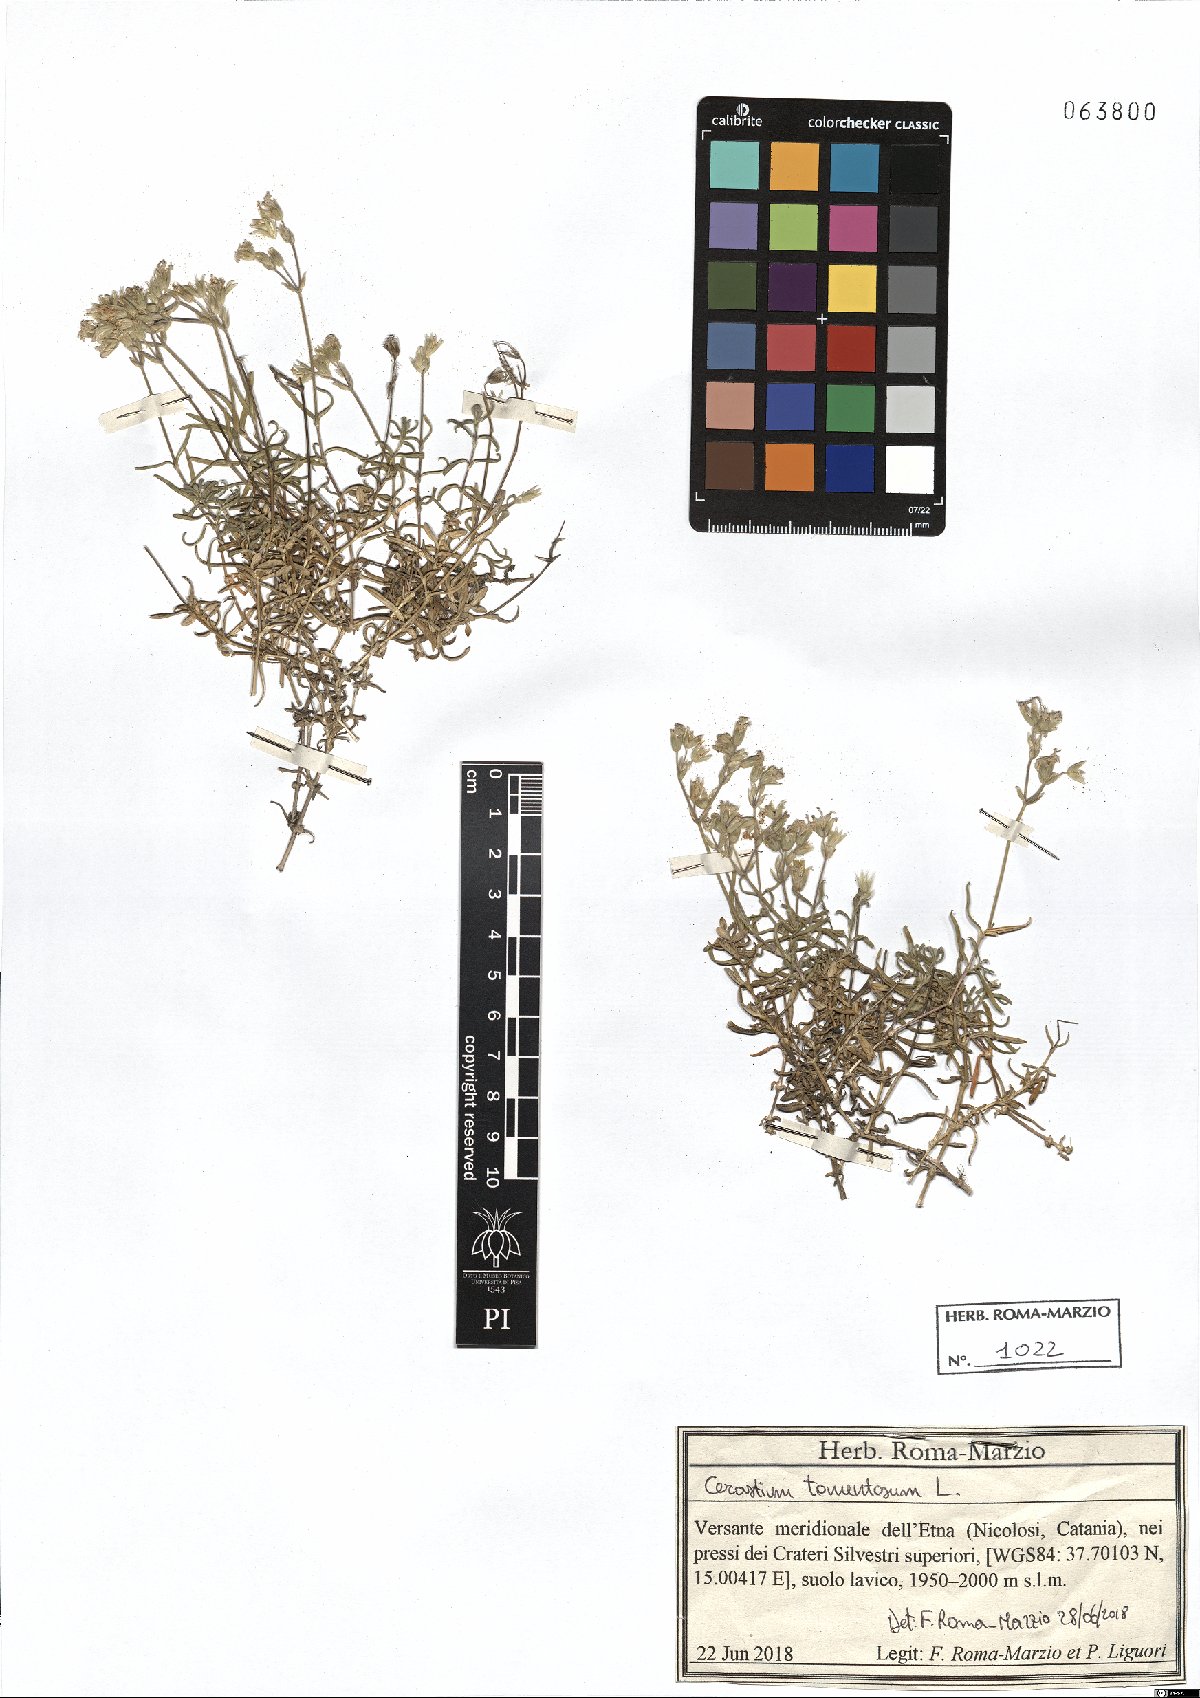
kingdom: Plantae
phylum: Tracheophyta
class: Magnoliopsida
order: Caryophyllales
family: Caryophyllaceae
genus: Cerastium
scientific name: Cerastium tomentosum
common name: Snow-in-summer
